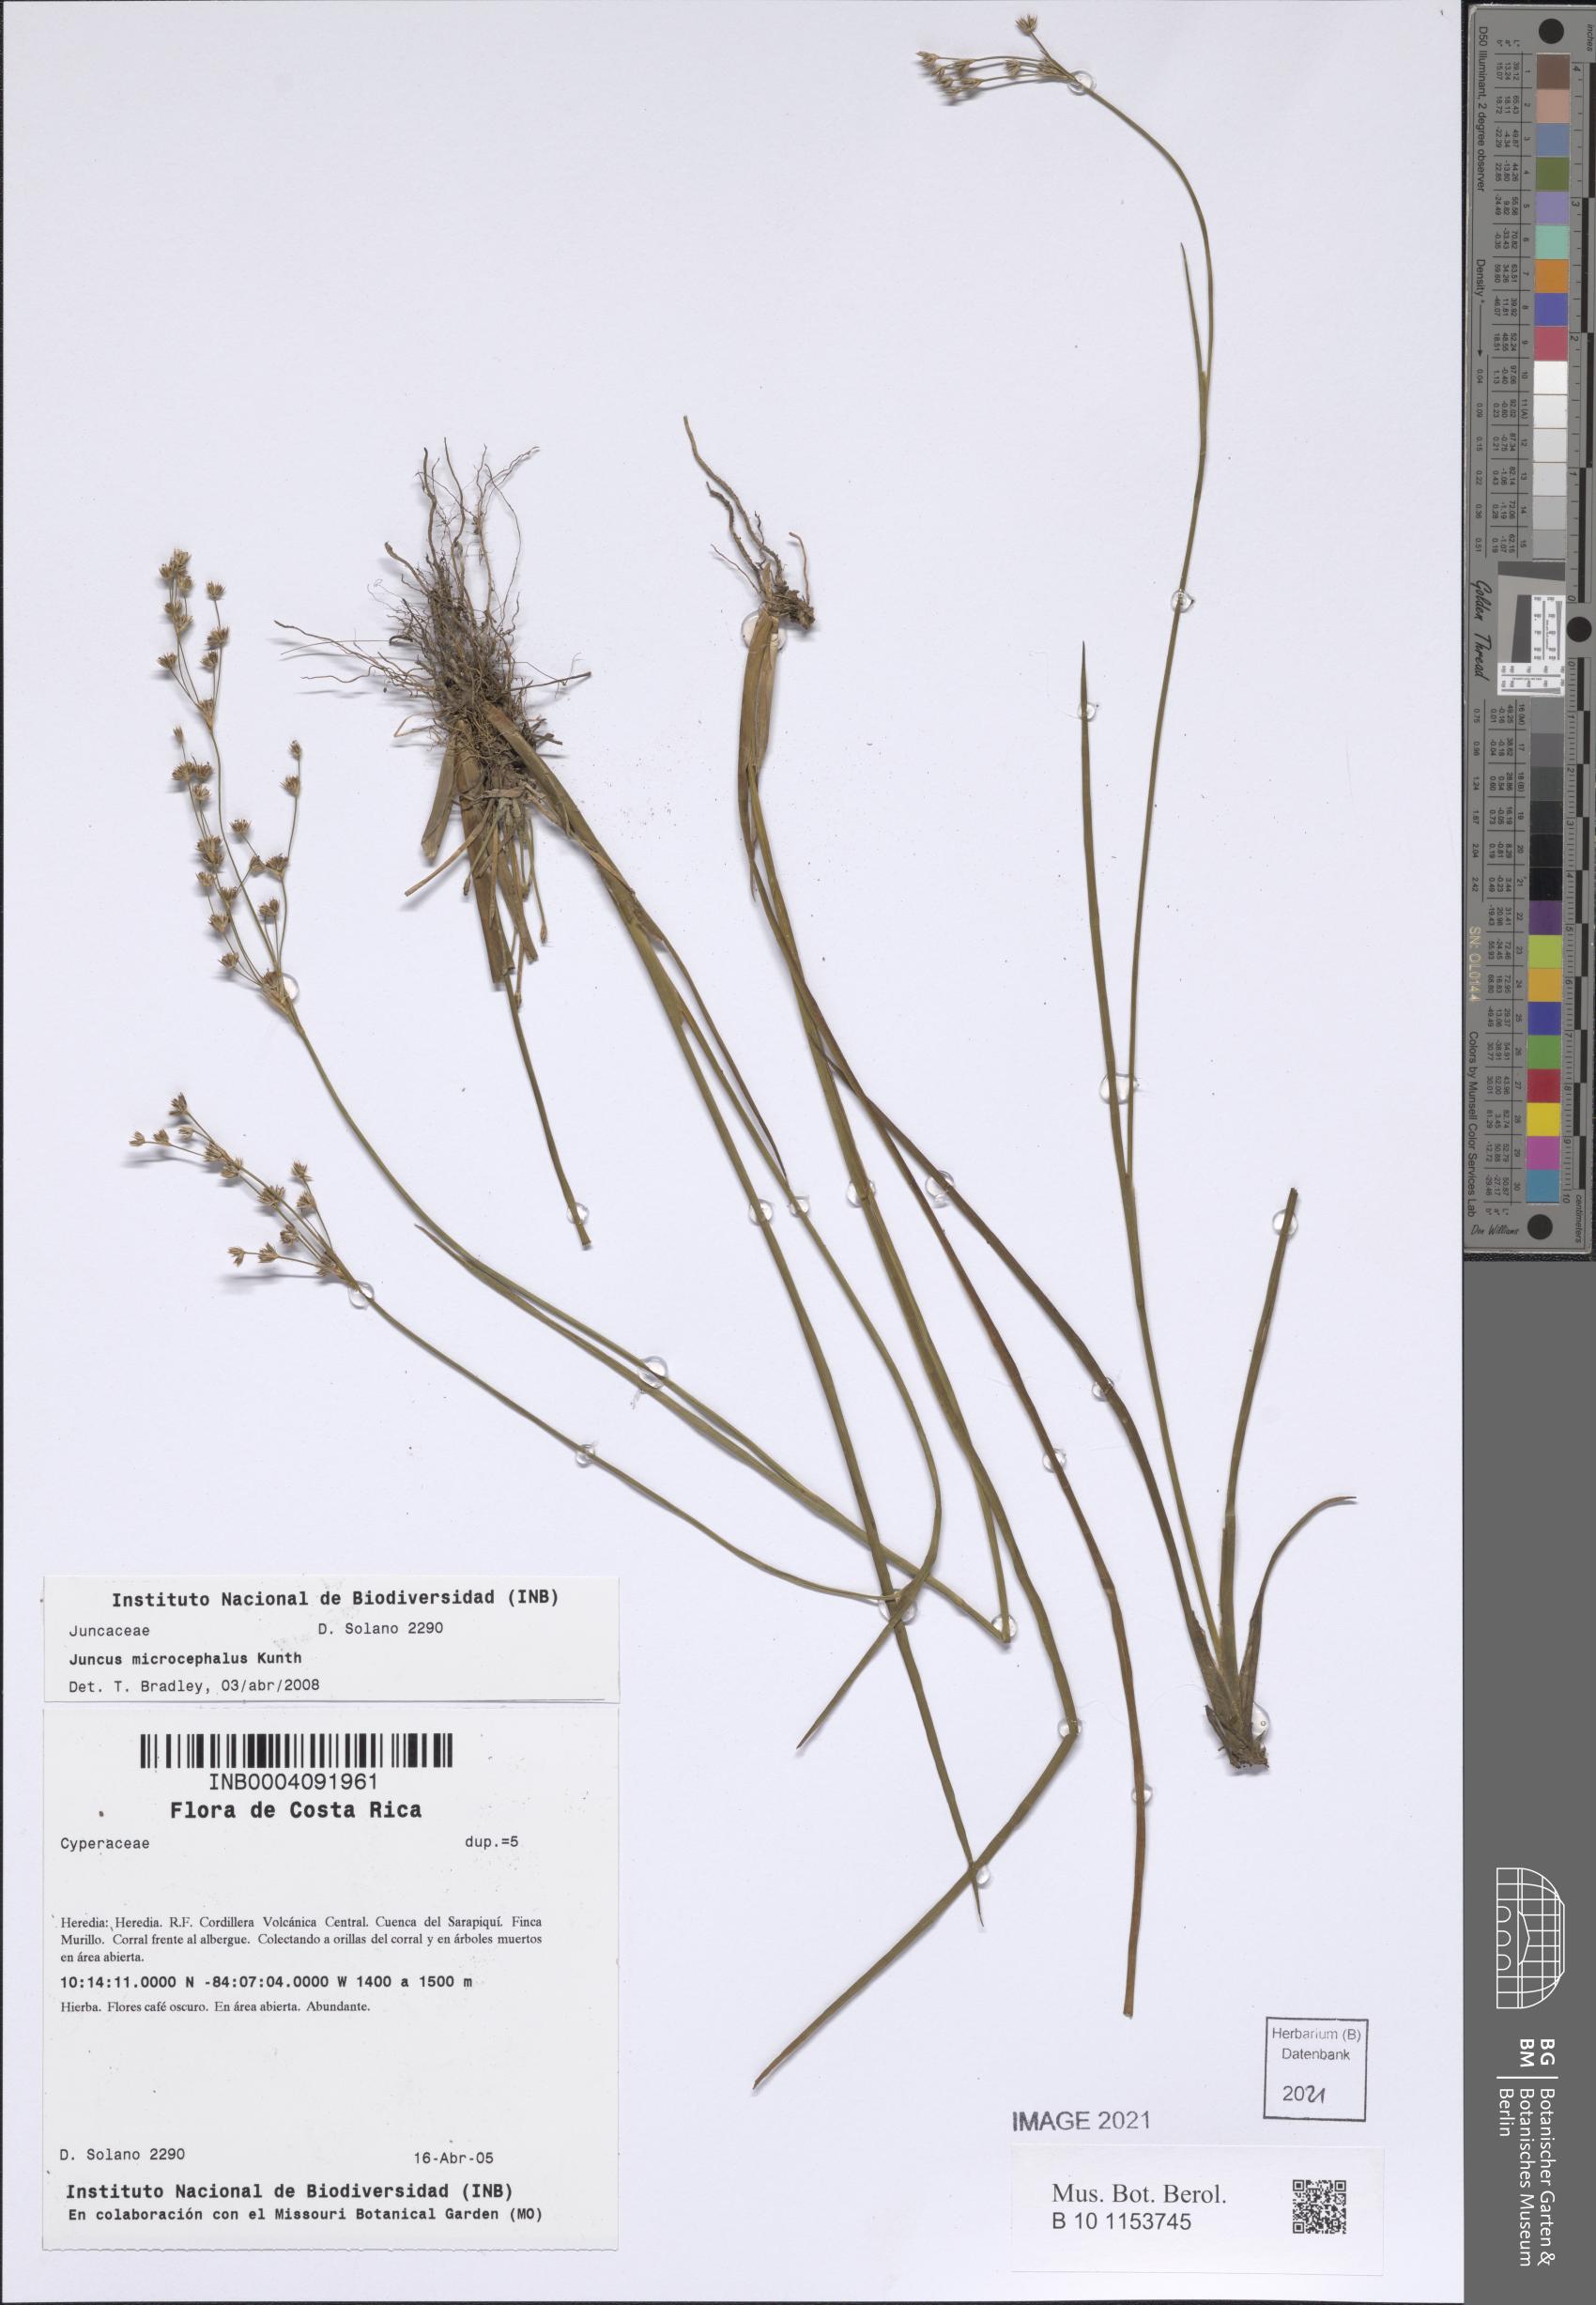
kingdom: Plantae
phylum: Tracheophyta
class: Liliopsida
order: Poales
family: Juncaceae
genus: Juncus
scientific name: Juncus microcephalus
